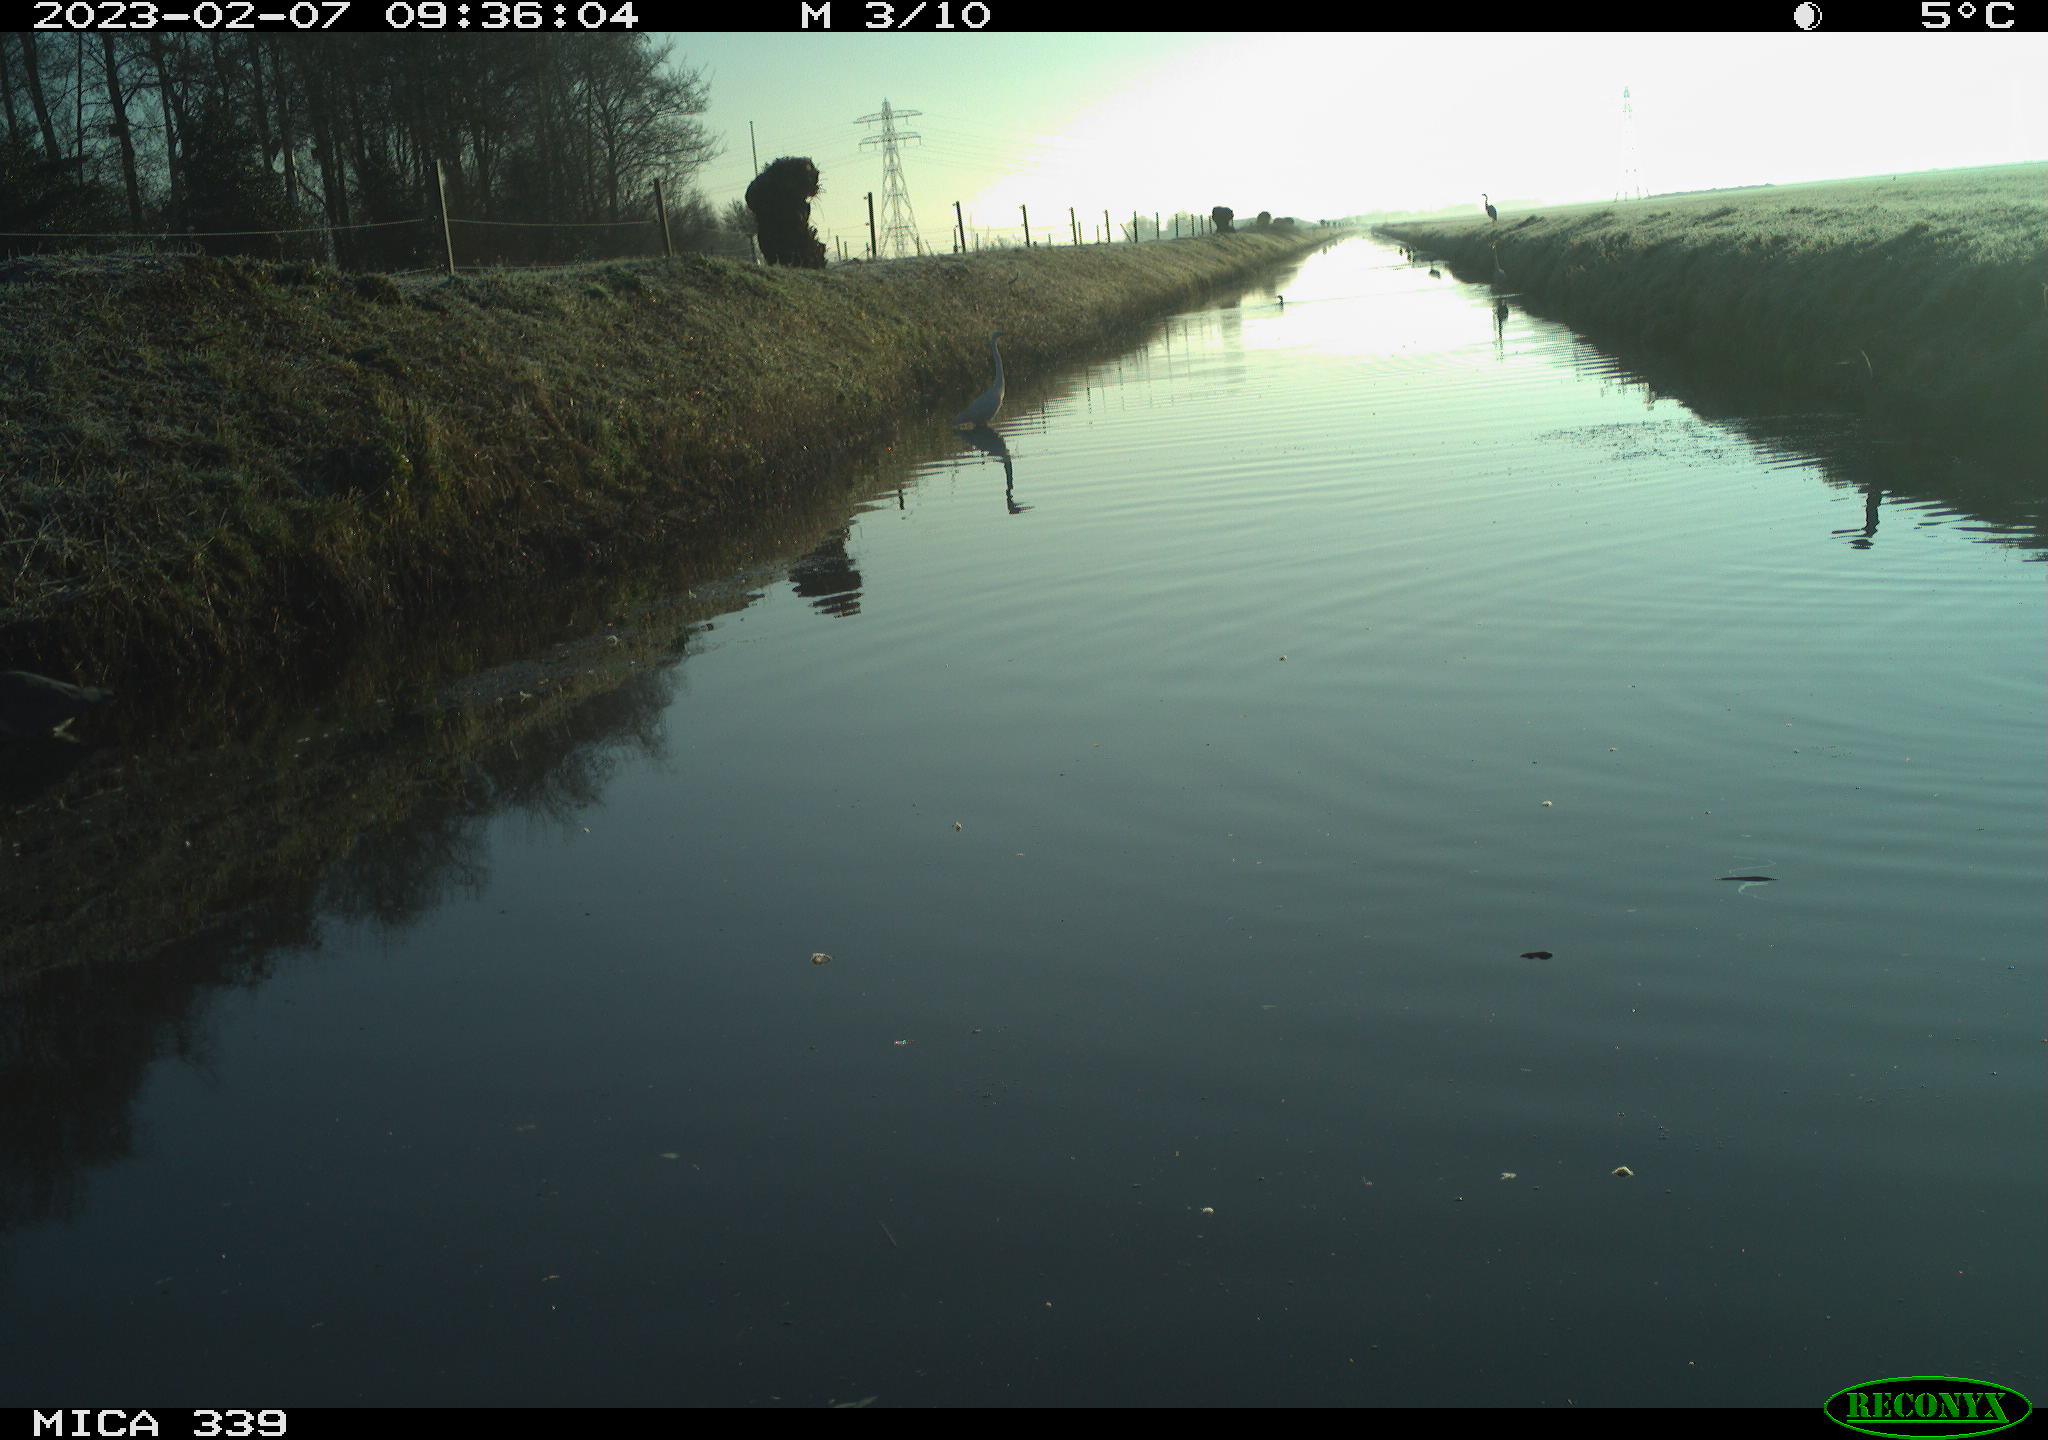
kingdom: Animalia
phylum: Chordata
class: Aves
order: Pelecaniformes
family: Ardeidae
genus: Ardea
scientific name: Ardea alba
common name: Great egret
